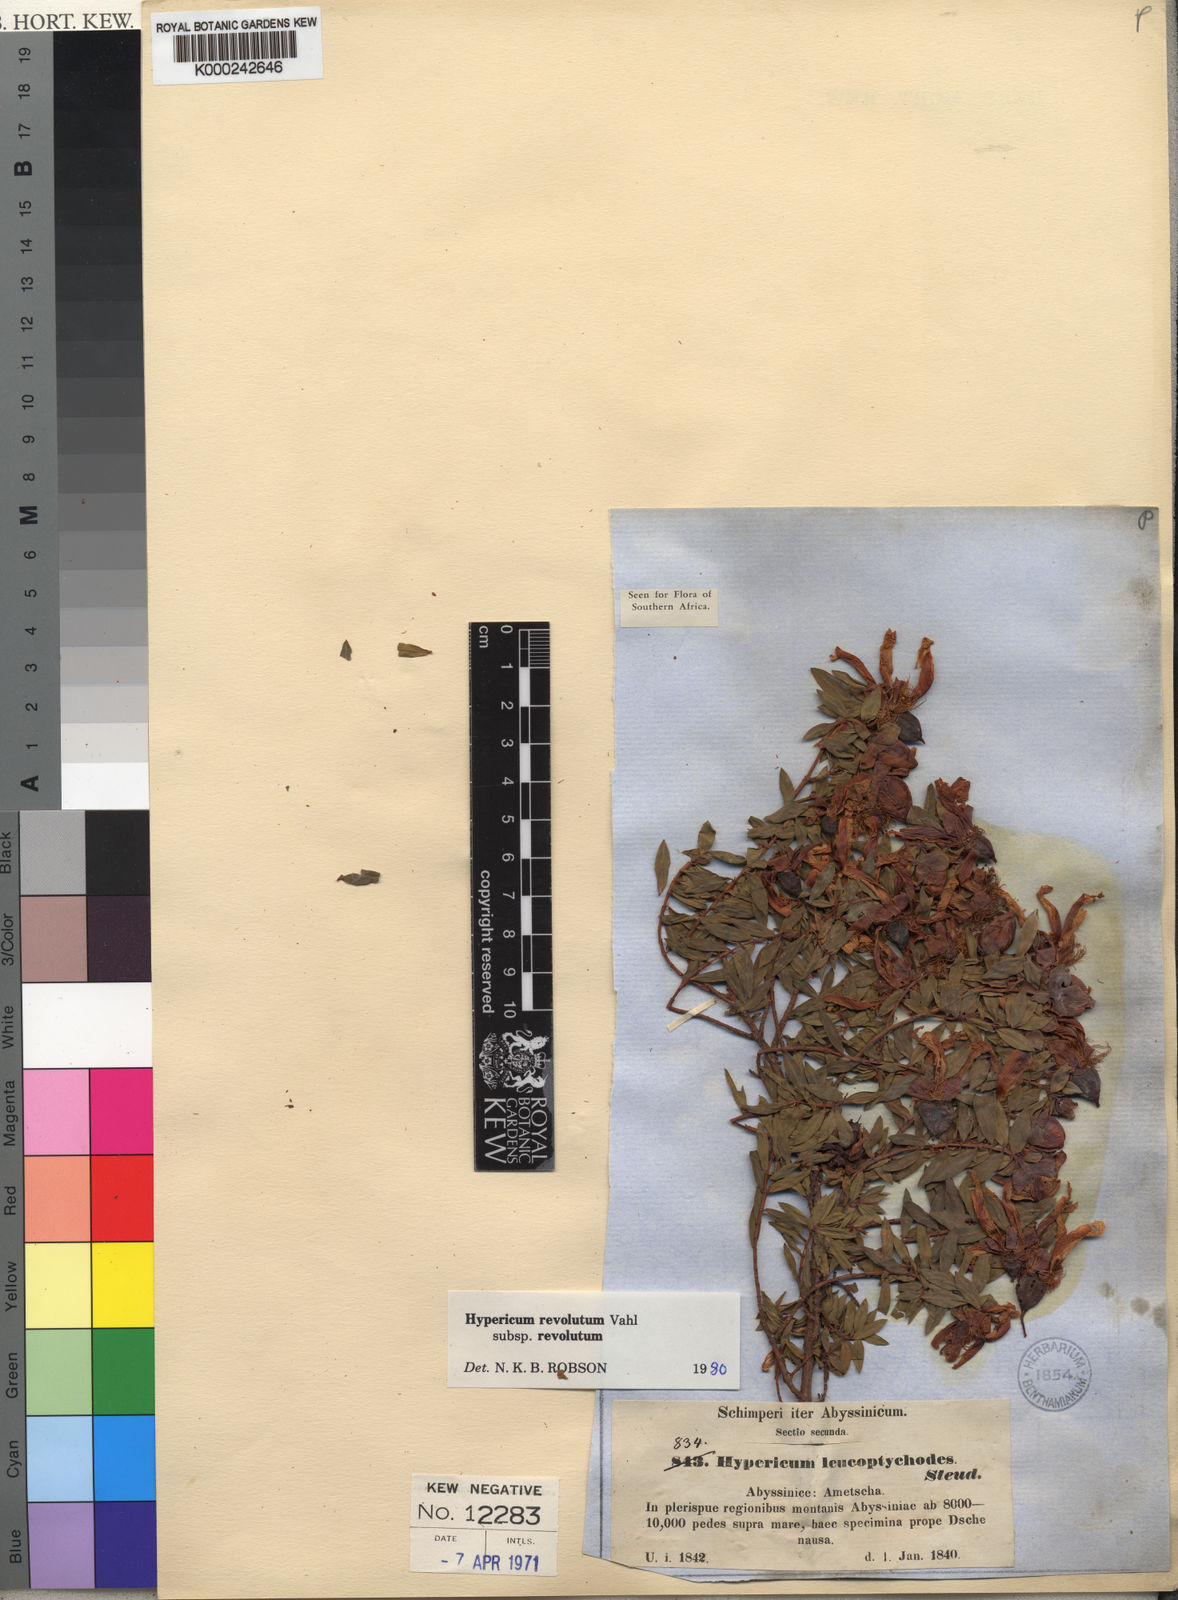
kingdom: Plantae
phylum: Tracheophyta
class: Magnoliopsida
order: Malpighiales
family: Hypericaceae
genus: Hypericum
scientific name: Hypericum revolutum
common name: Curry bush
